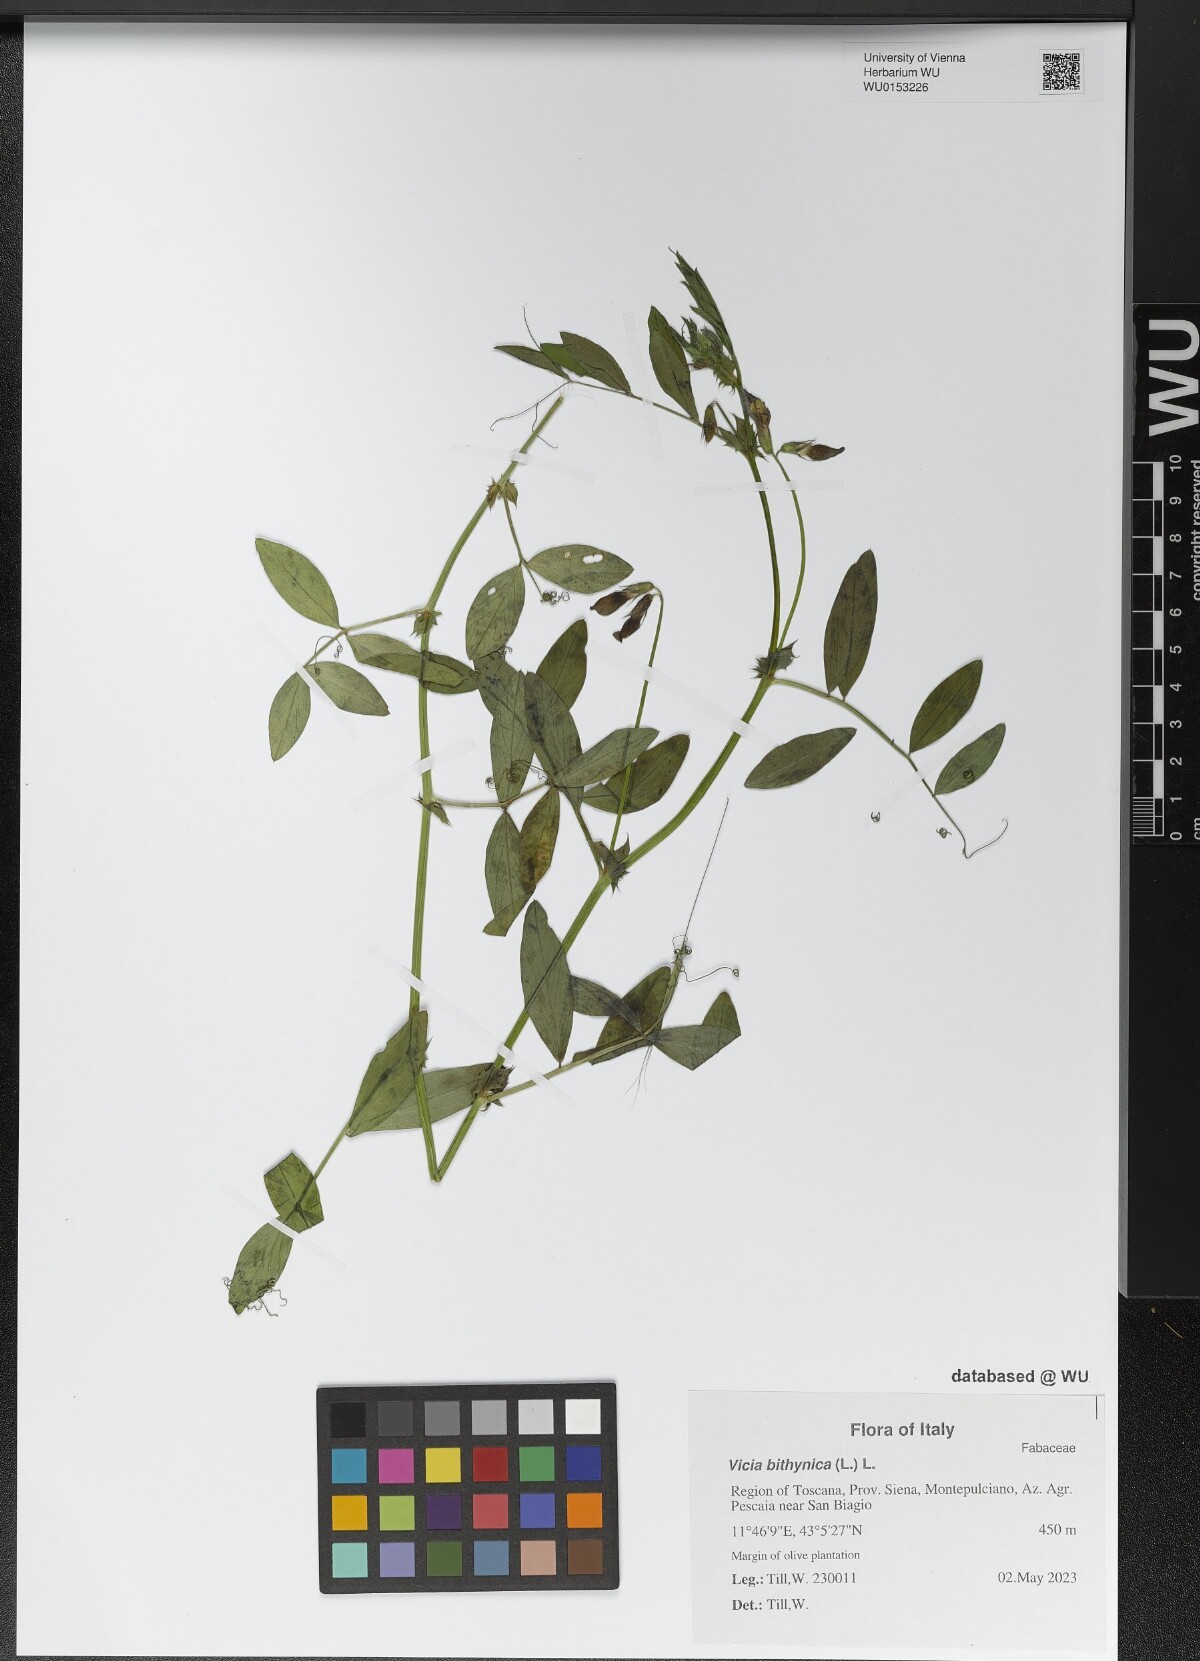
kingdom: Plantae
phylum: Tracheophyta
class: Magnoliopsida
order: Fabales
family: Fabaceae
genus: Vicia
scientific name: Vicia bithynica
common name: Bithynian vetch
